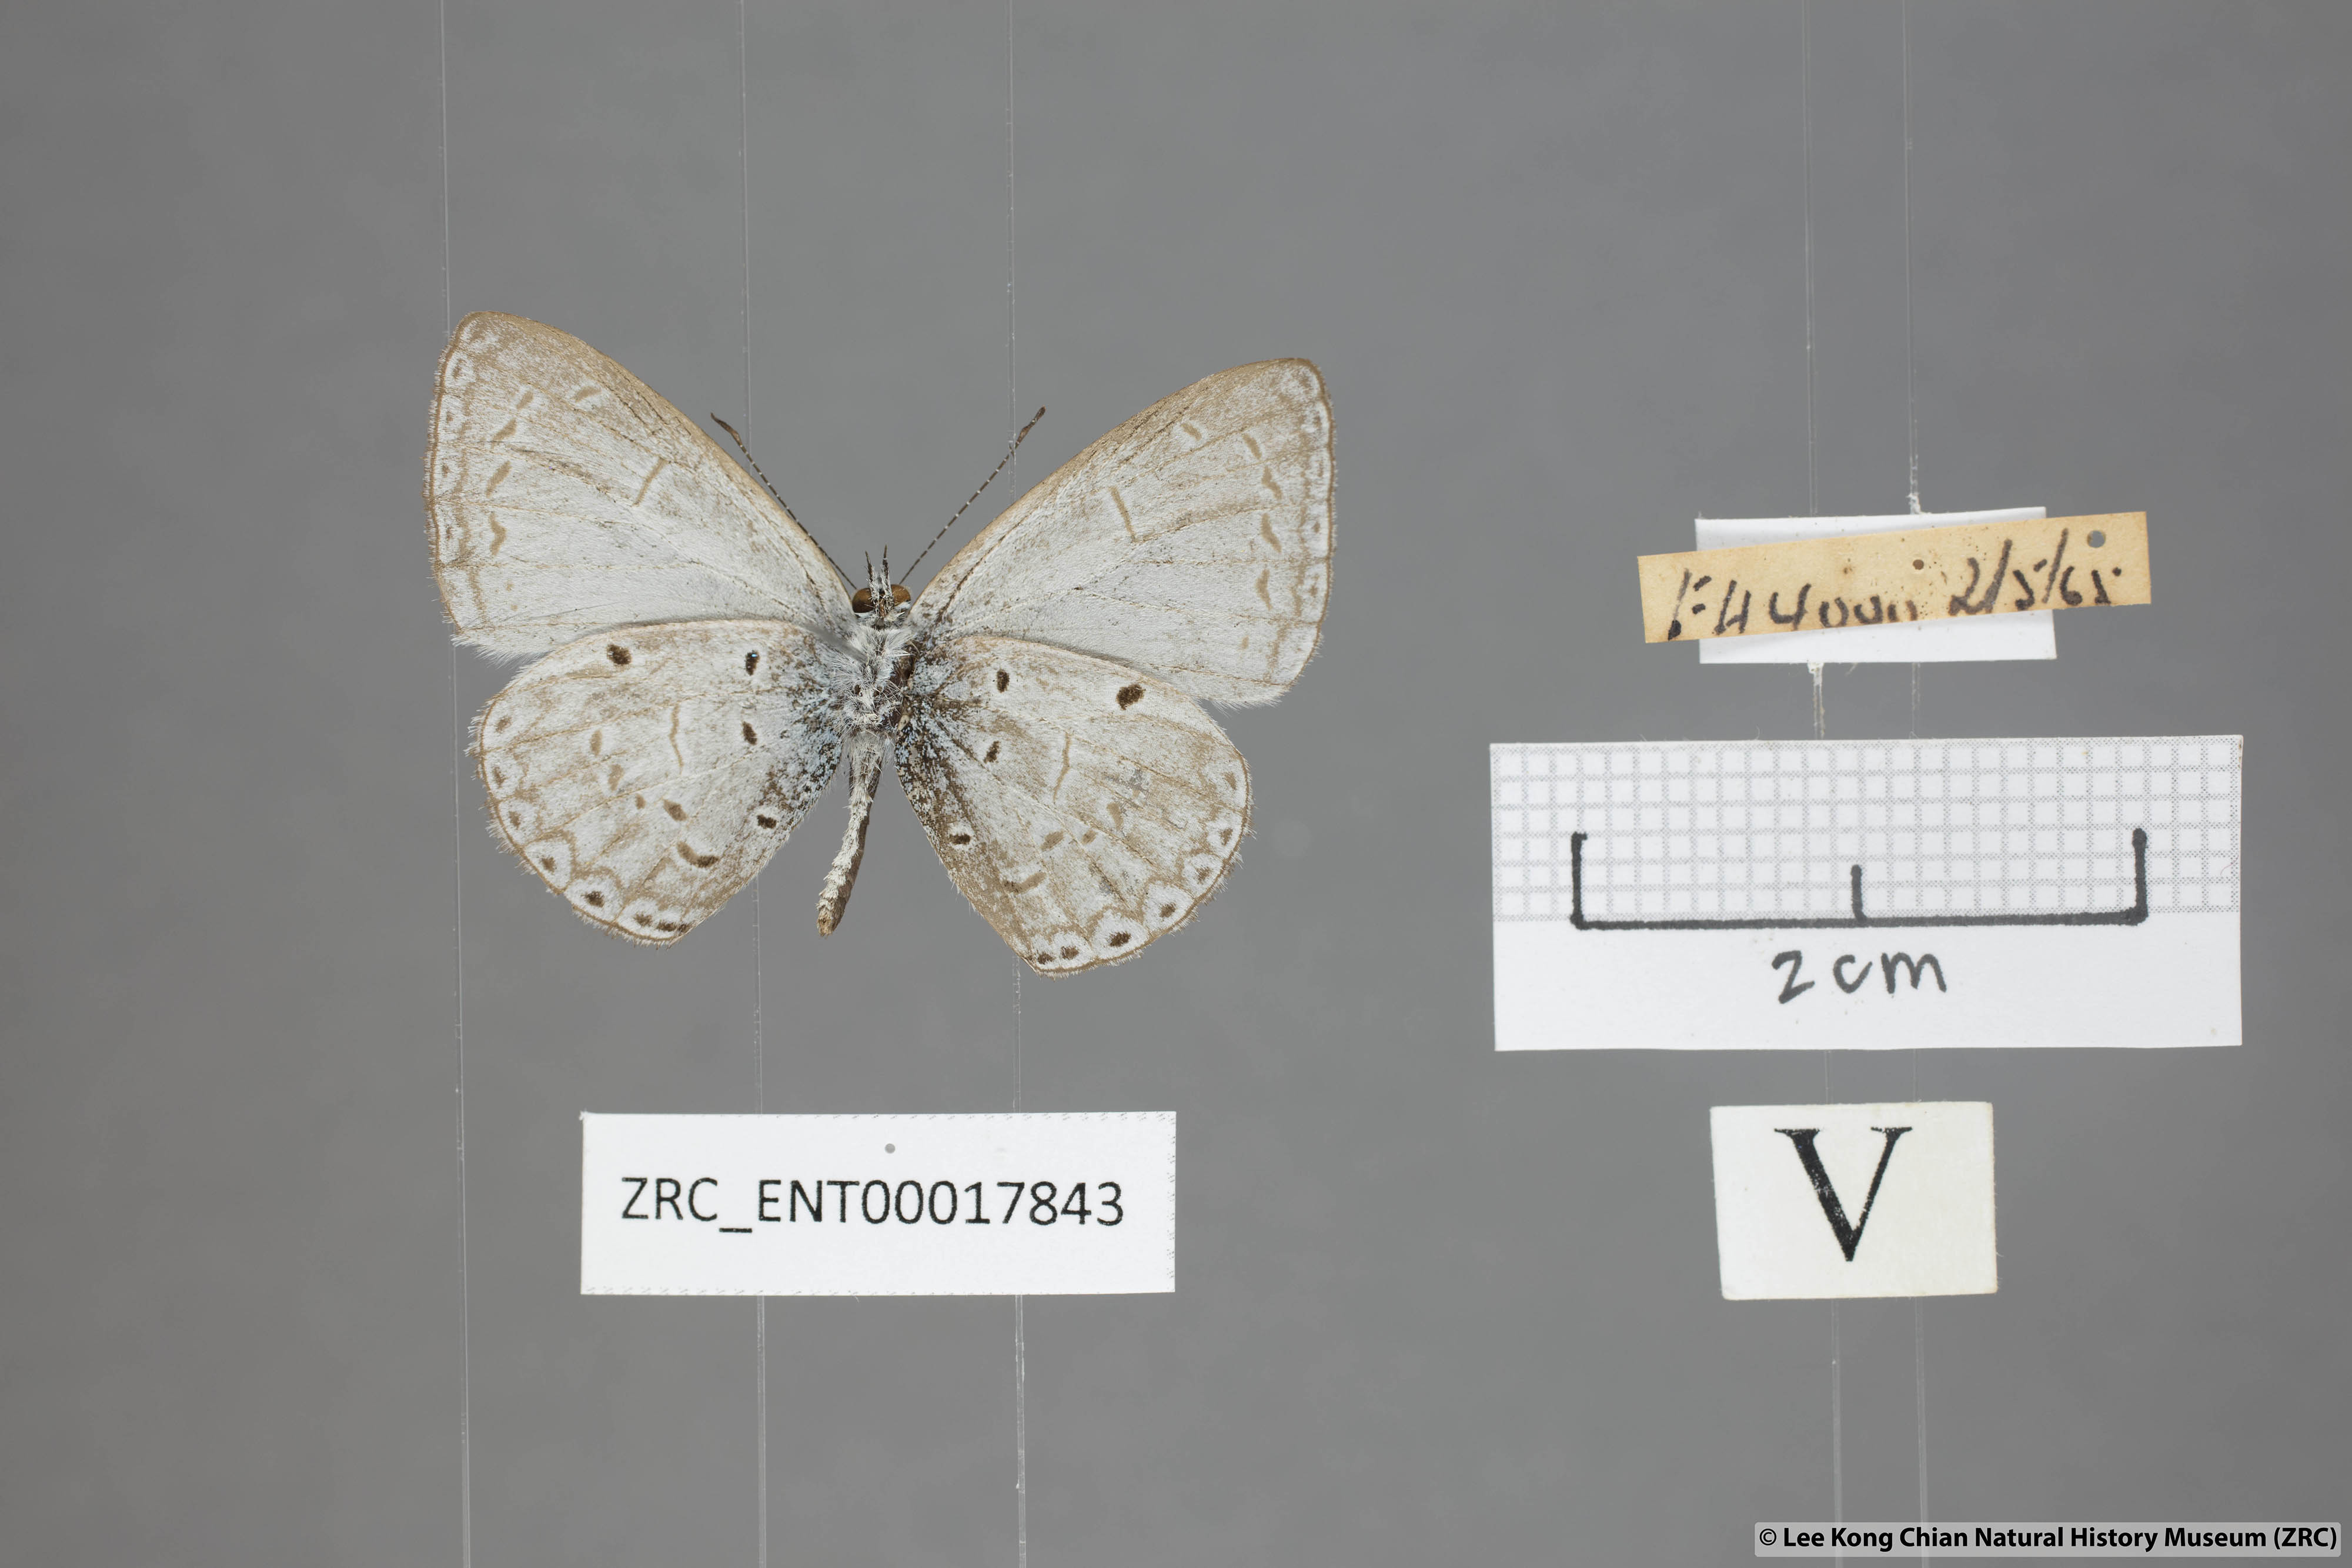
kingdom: Animalia
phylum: Arthropoda
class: Insecta
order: Lepidoptera
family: Lycaenidae
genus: Udara
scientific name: Udara
